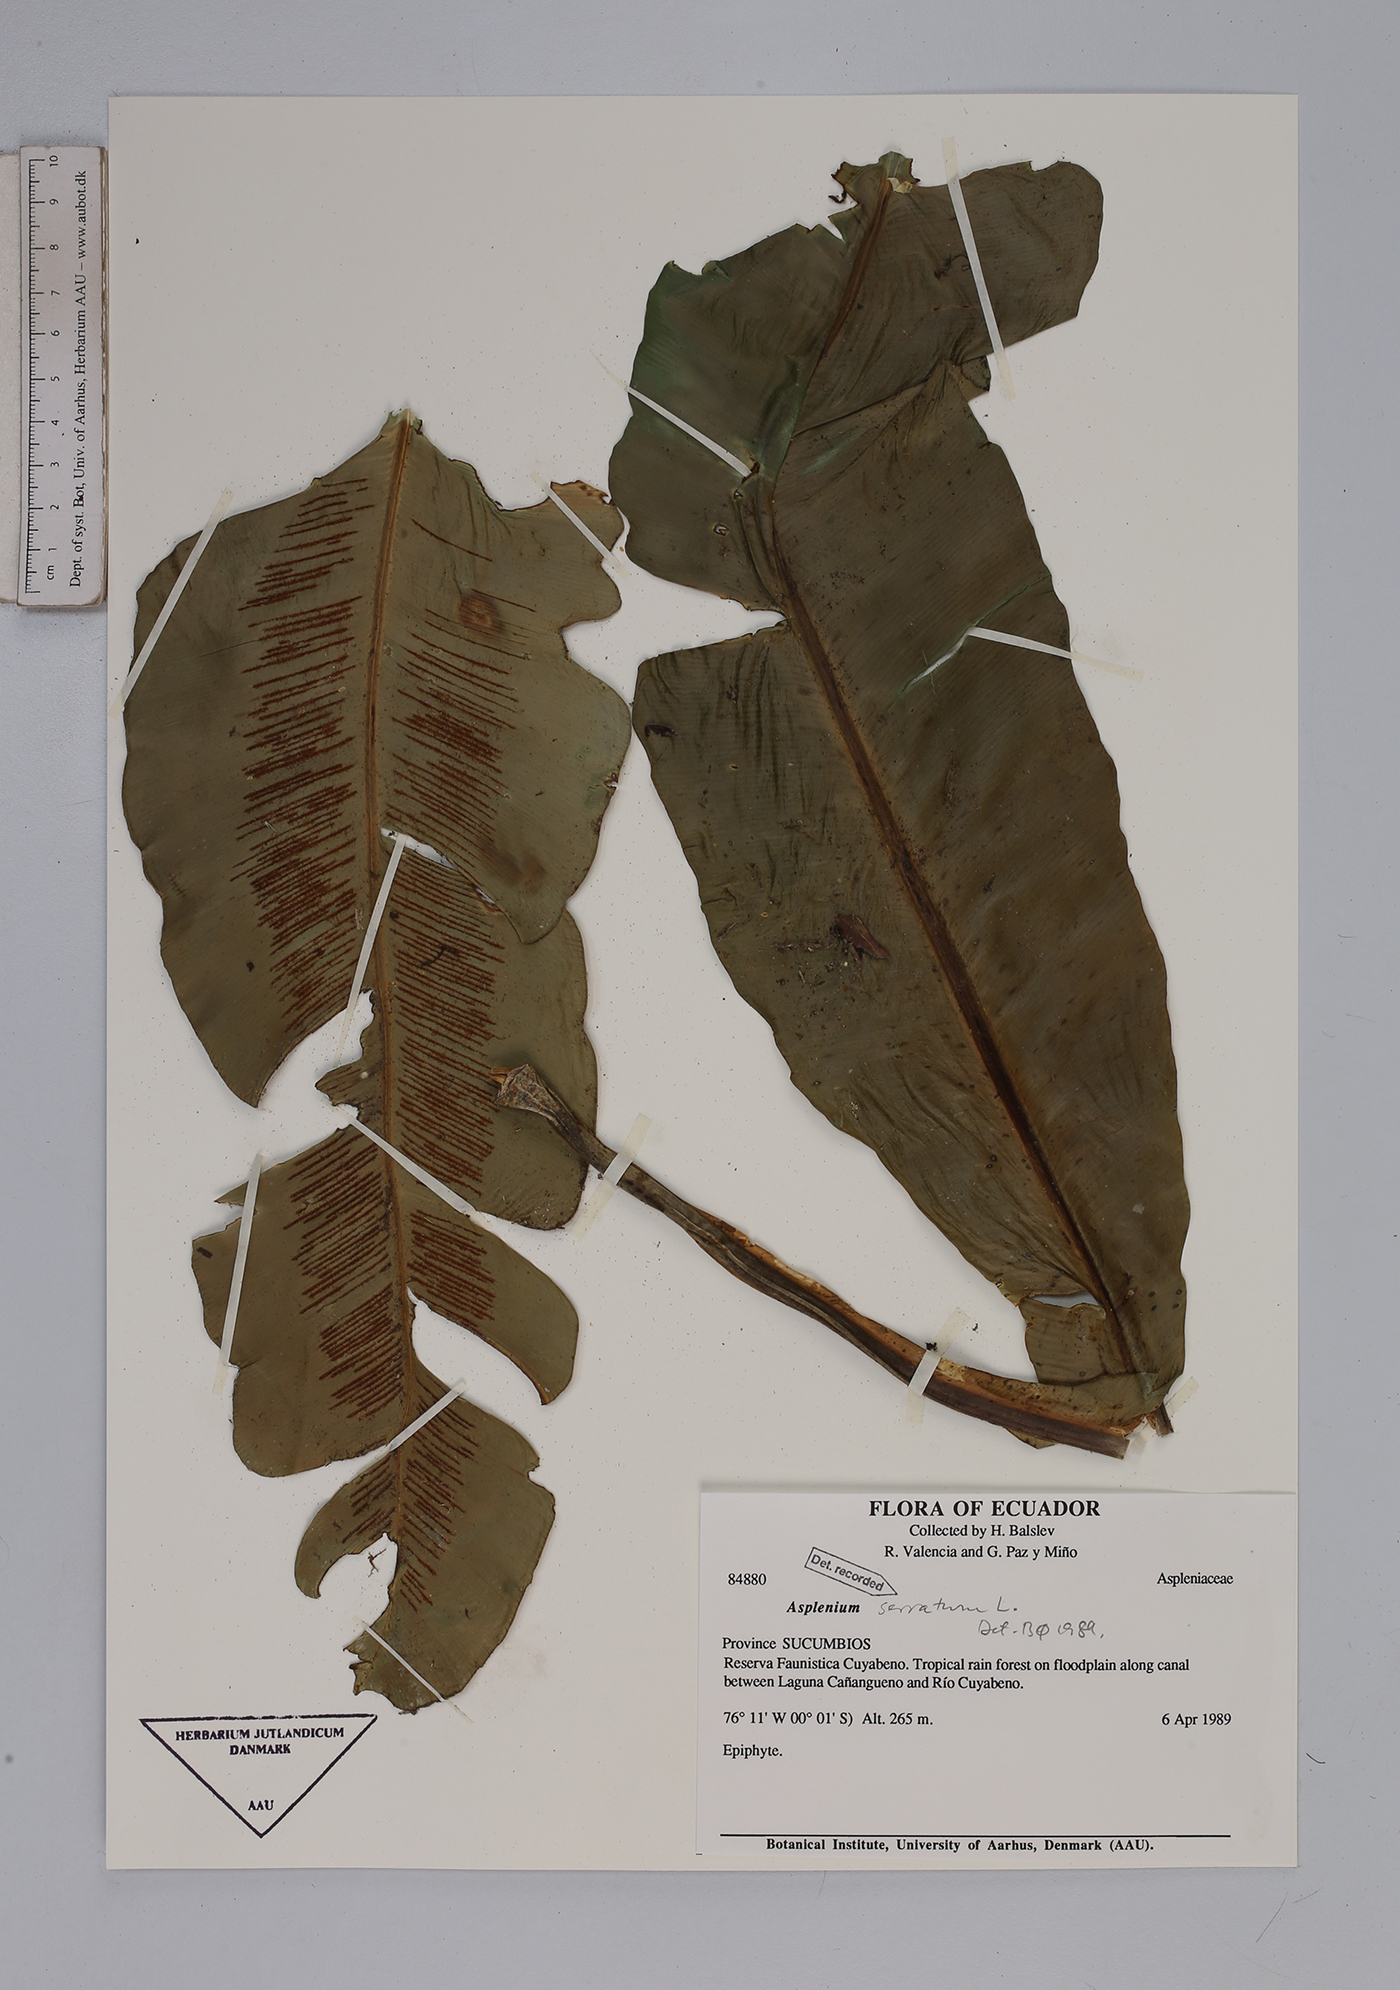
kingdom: Plantae
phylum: Tracheophyta
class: Polypodiopsida
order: Polypodiales
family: Aspleniaceae
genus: Asplenium
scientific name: Asplenium serratum
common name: Wild birdnest fern
